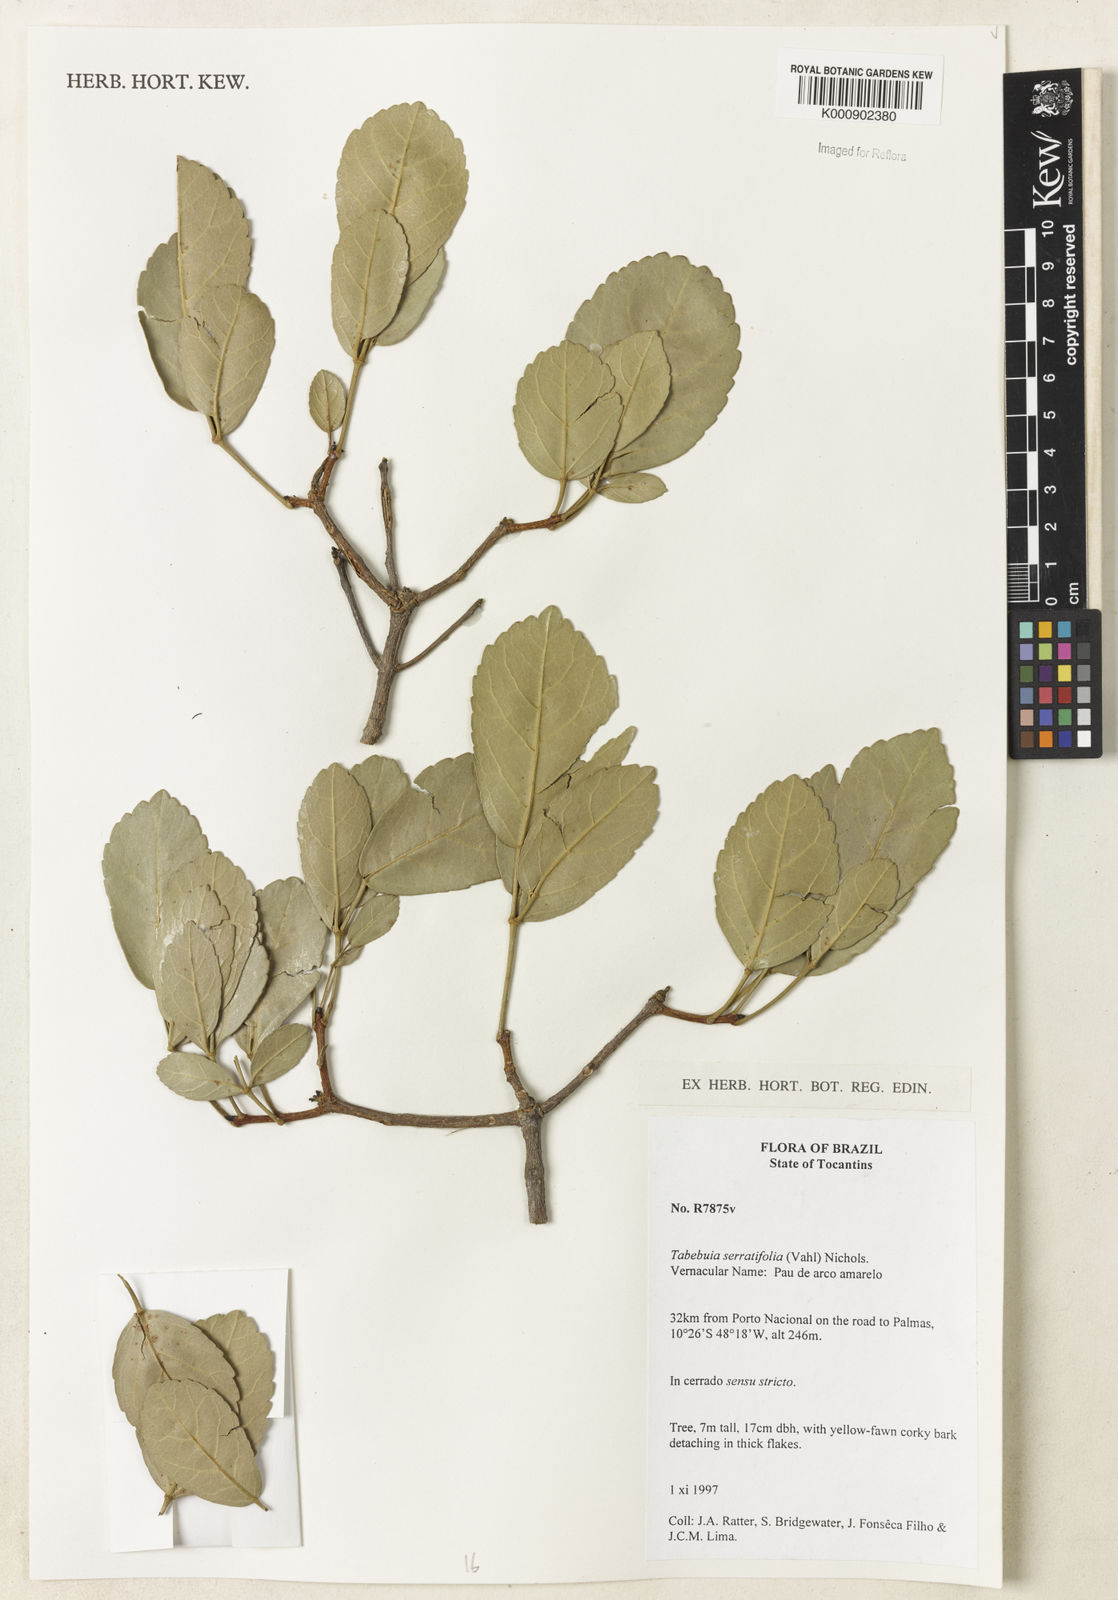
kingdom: Plantae
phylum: Tracheophyta
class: Magnoliopsida
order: Lamiales
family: Bignoniaceae
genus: Handroanthus
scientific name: Handroanthus serratifolius
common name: Yellow ipe
